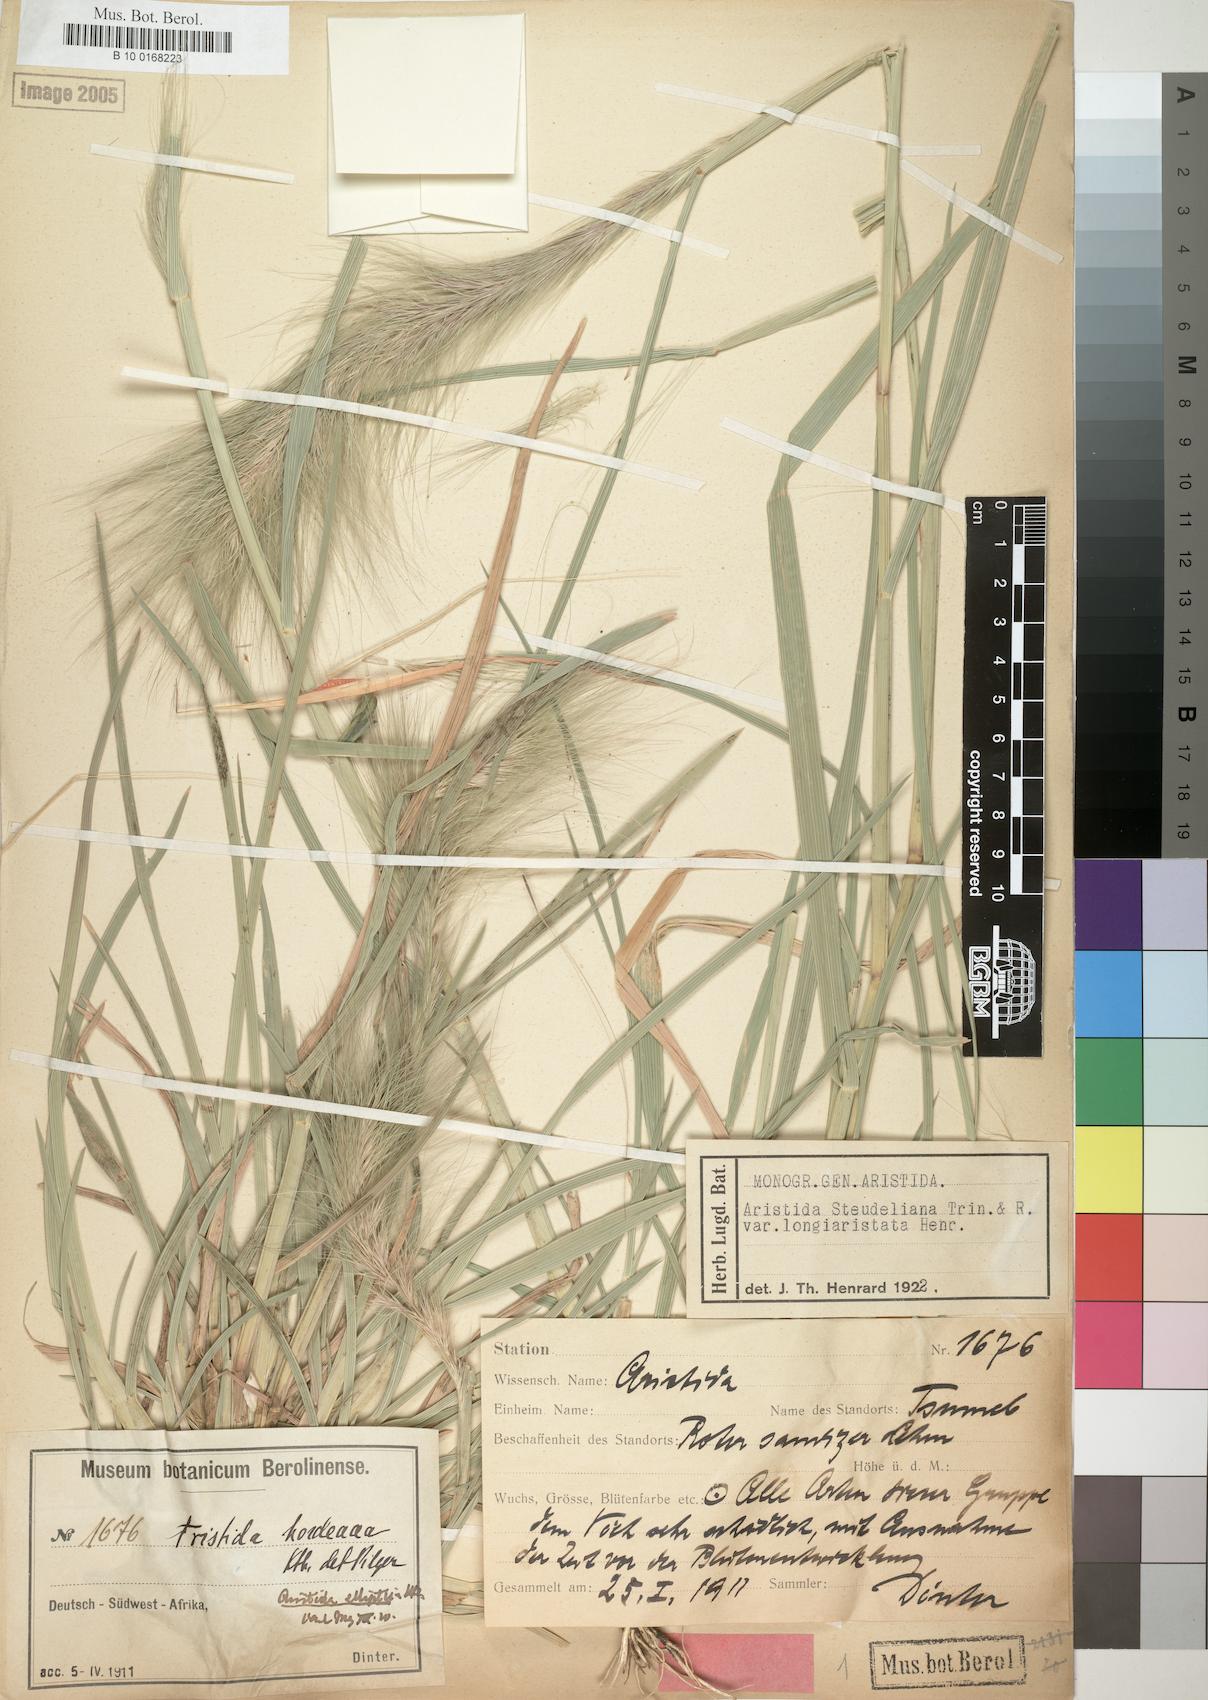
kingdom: Plantae
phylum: Tracheophyta
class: Liliopsida
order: Poales
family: Poaceae
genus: Aristida
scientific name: Aristida hordeacea
